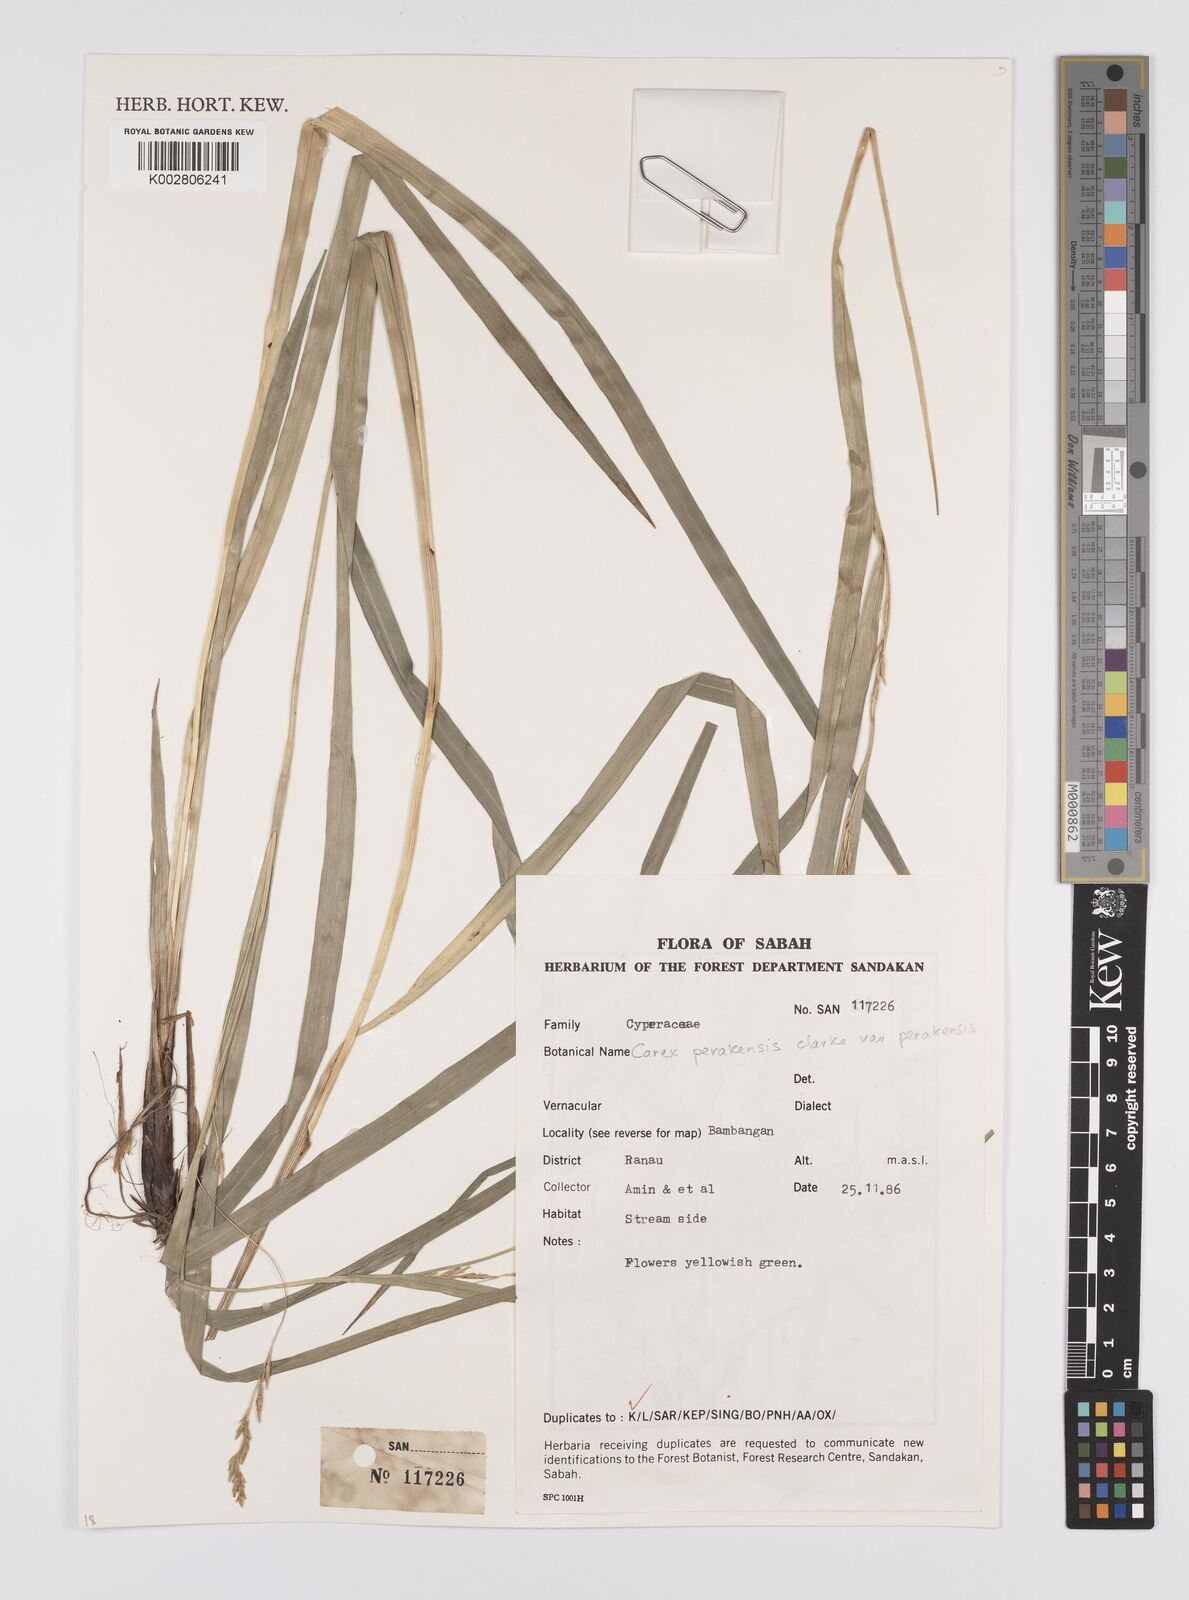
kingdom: Plantae
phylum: Tracheophyta
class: Liliopsida
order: Poales
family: Cyperaceae
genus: Carex
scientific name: Carex perakensis
